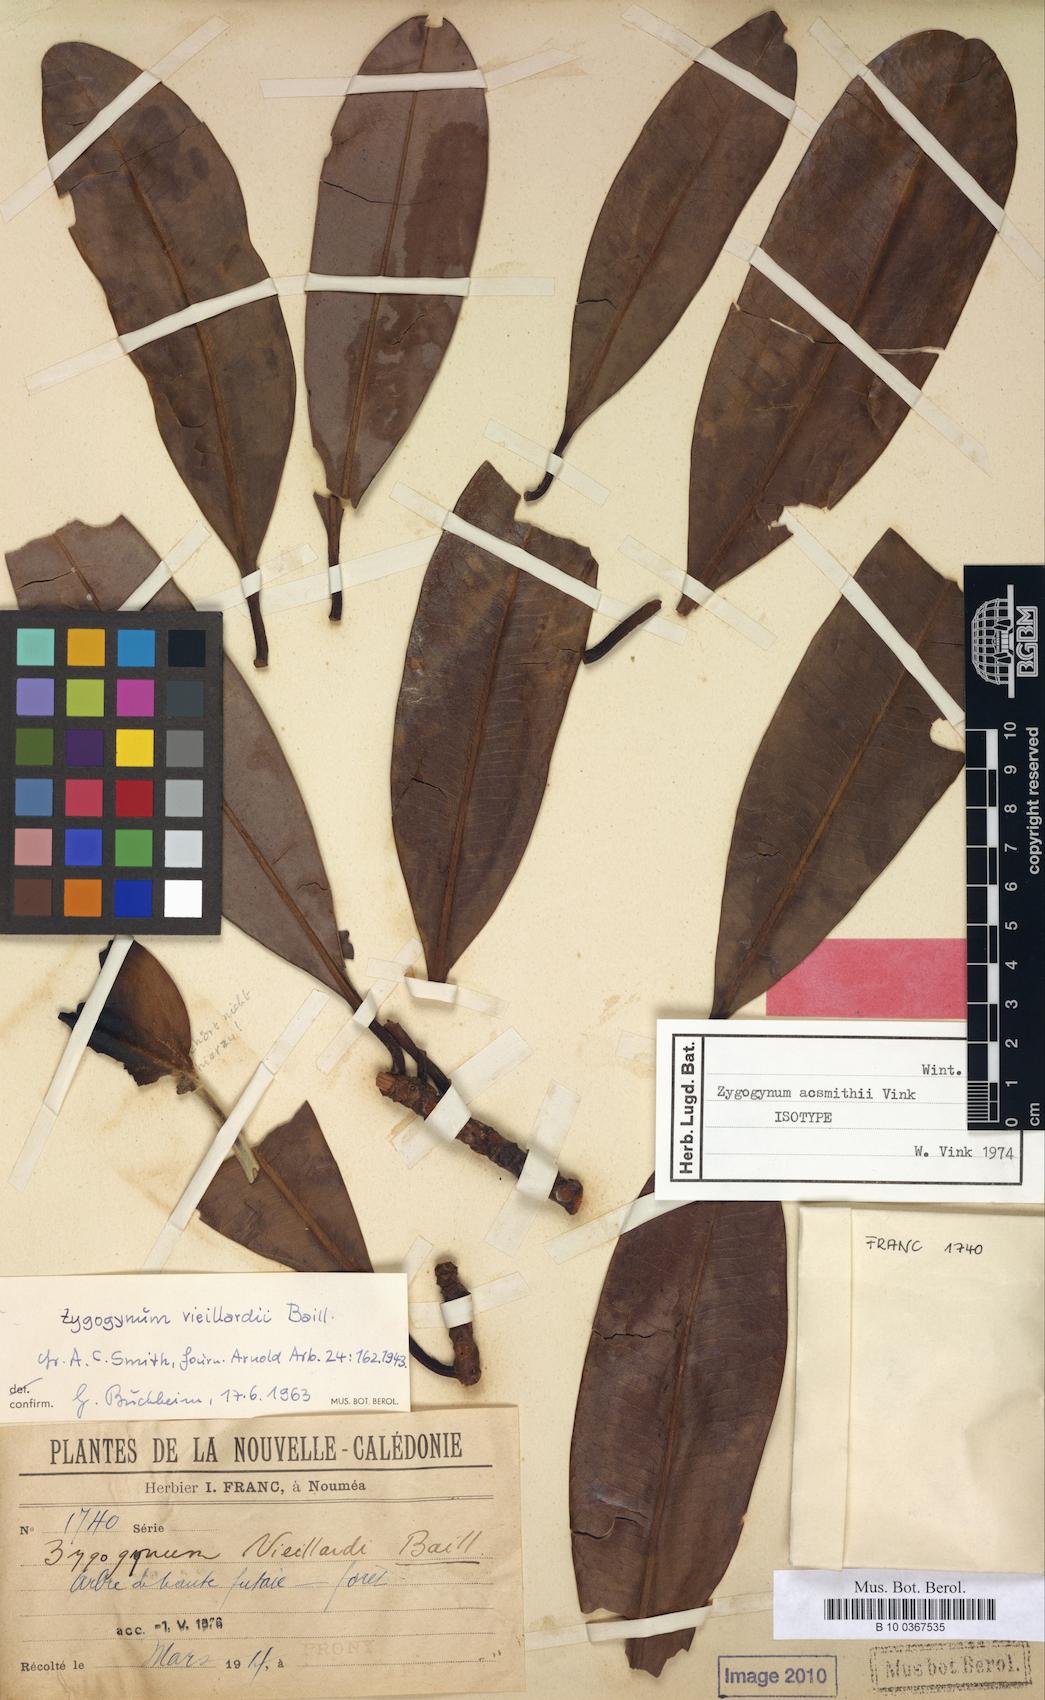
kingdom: Plantae
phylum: Tracheophyta
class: Magnoliopsida
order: Canellales
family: Winteraceae
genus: Zygogynum
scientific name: Zygogynum acsmithii
